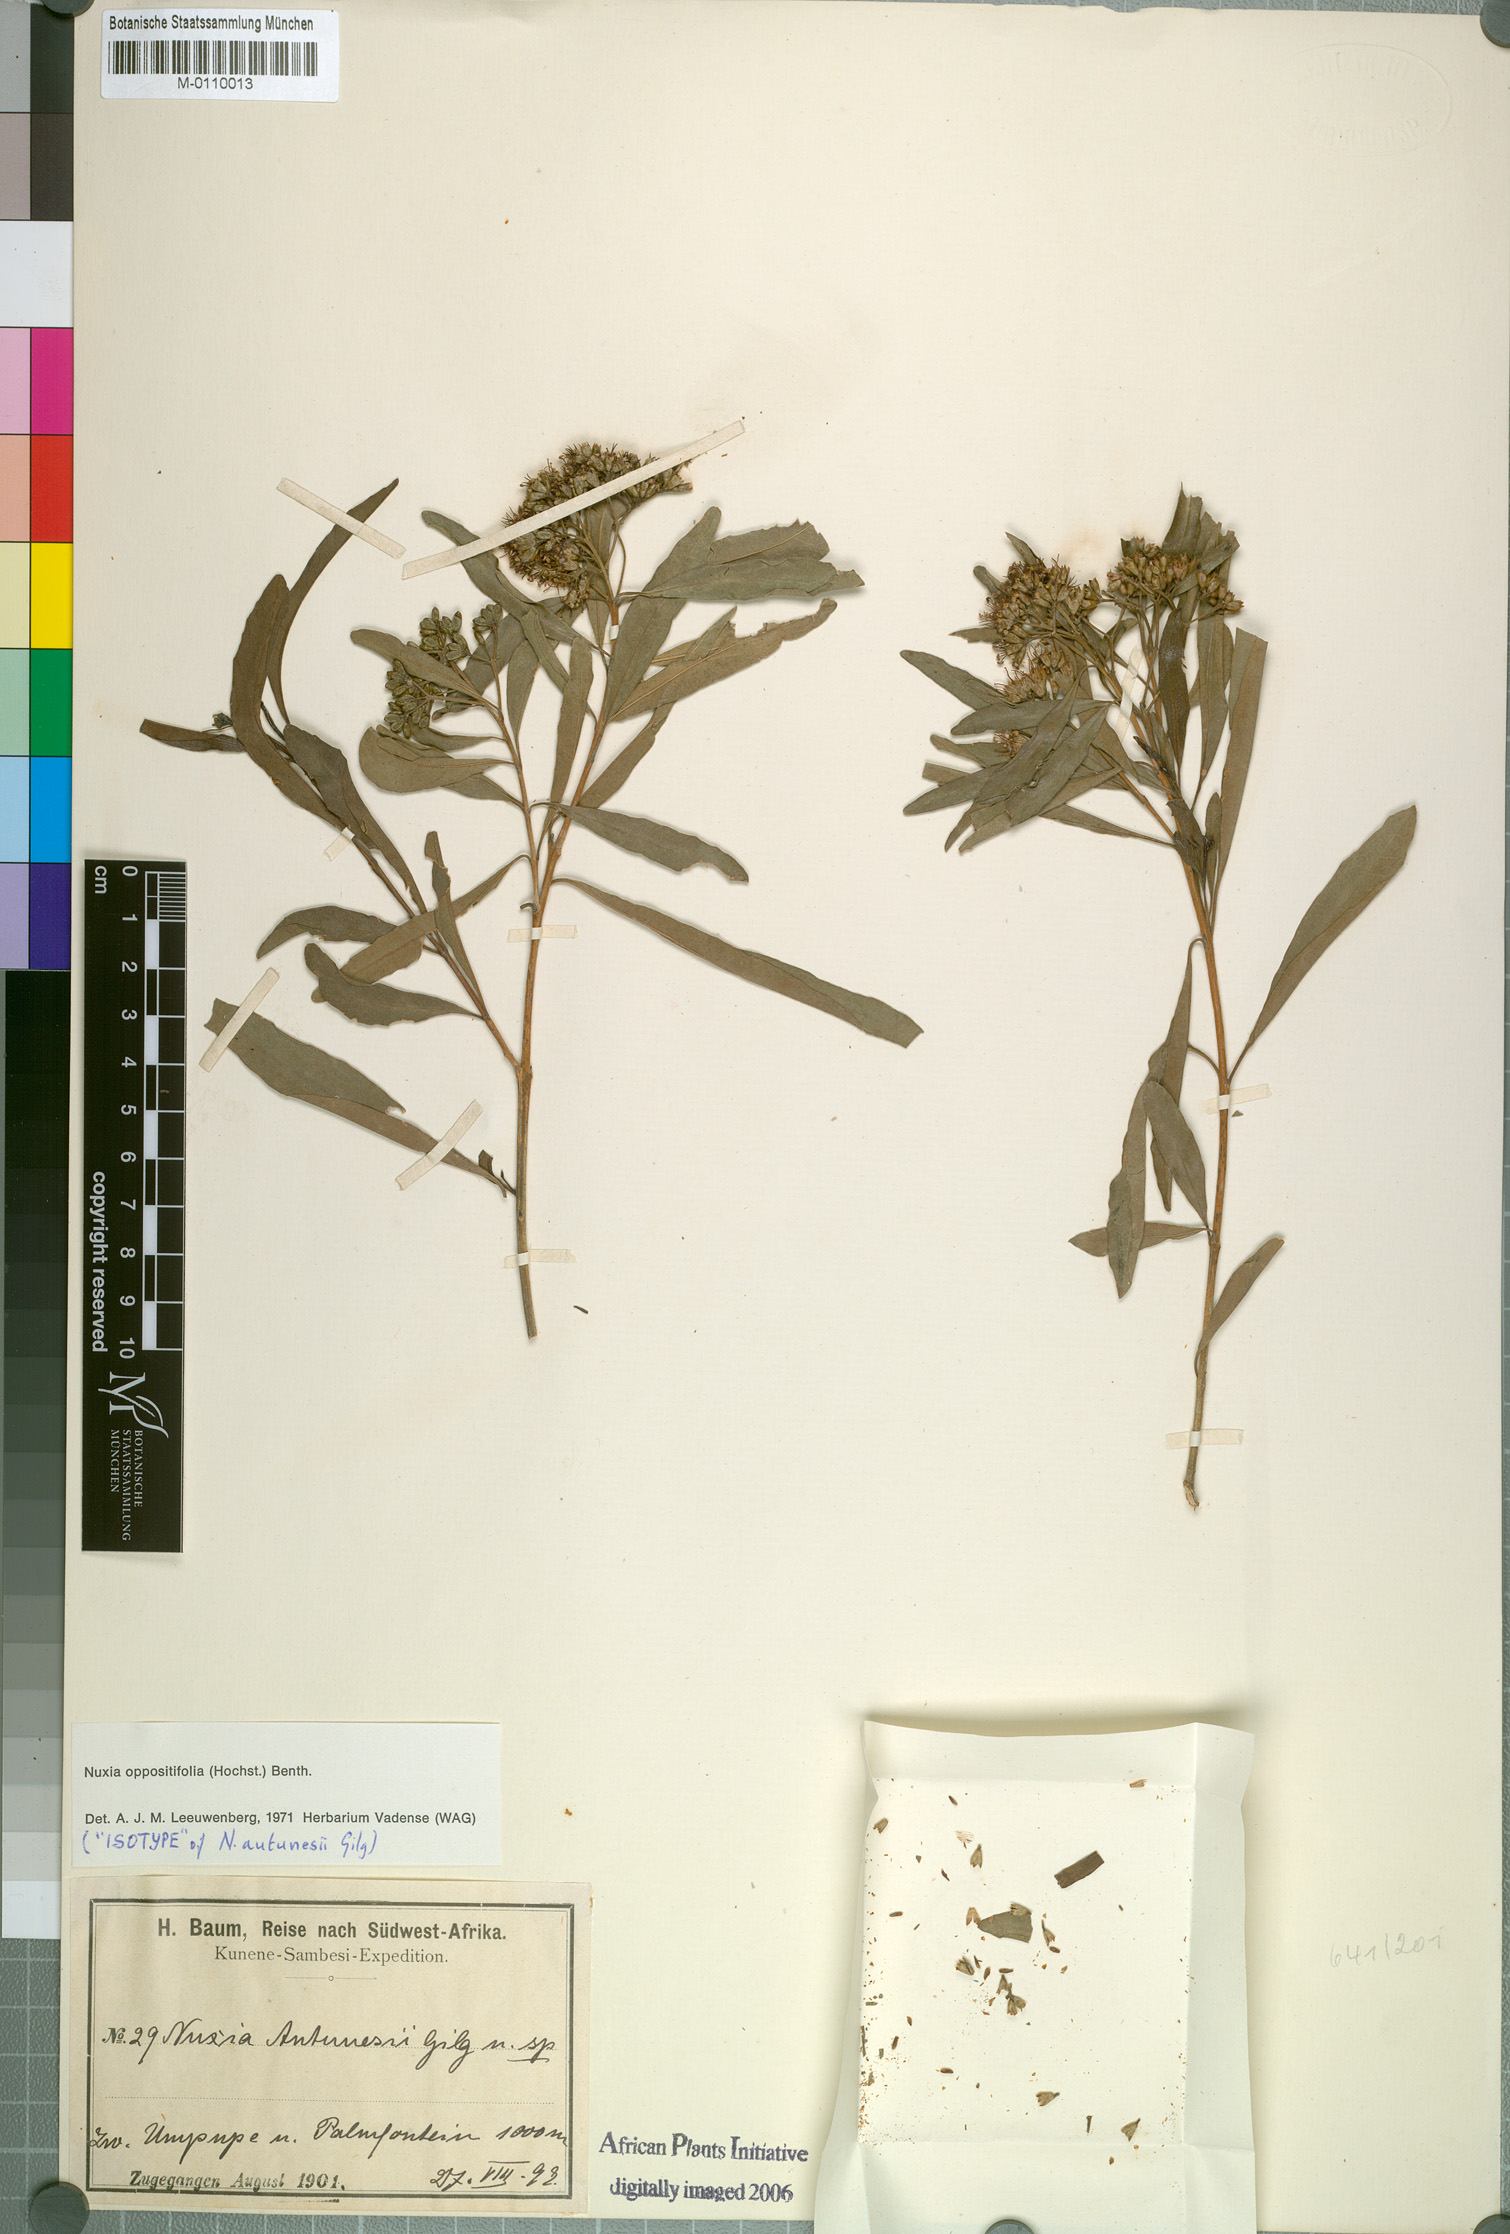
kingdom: Plantae
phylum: Tracheophyta
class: Magnoliopsida
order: Lamiales
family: Stilbaceae
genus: Nuxia
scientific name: Nuxia oppositifolia
